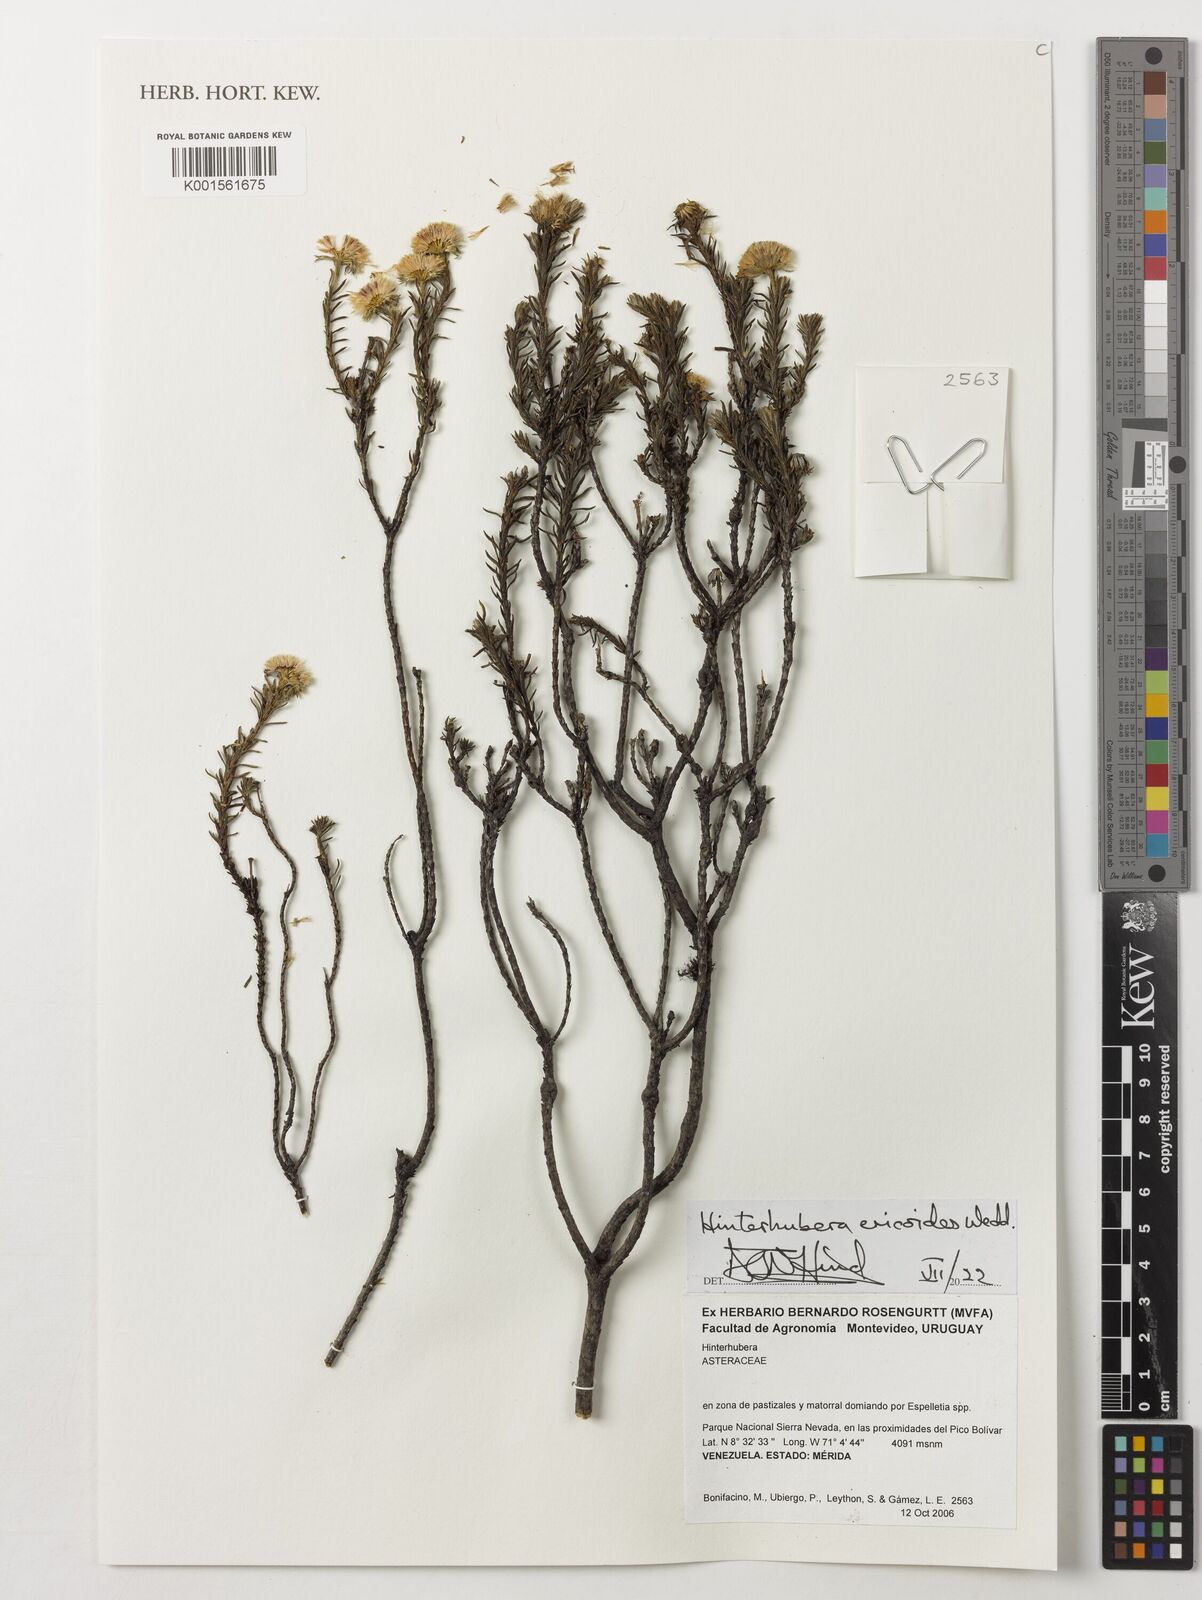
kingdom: Plantae
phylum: Tracheophyta
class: Magnoliopsida
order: Asterales
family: Asteraceae
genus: Hinterhubera
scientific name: Hinterhubera ericoides
